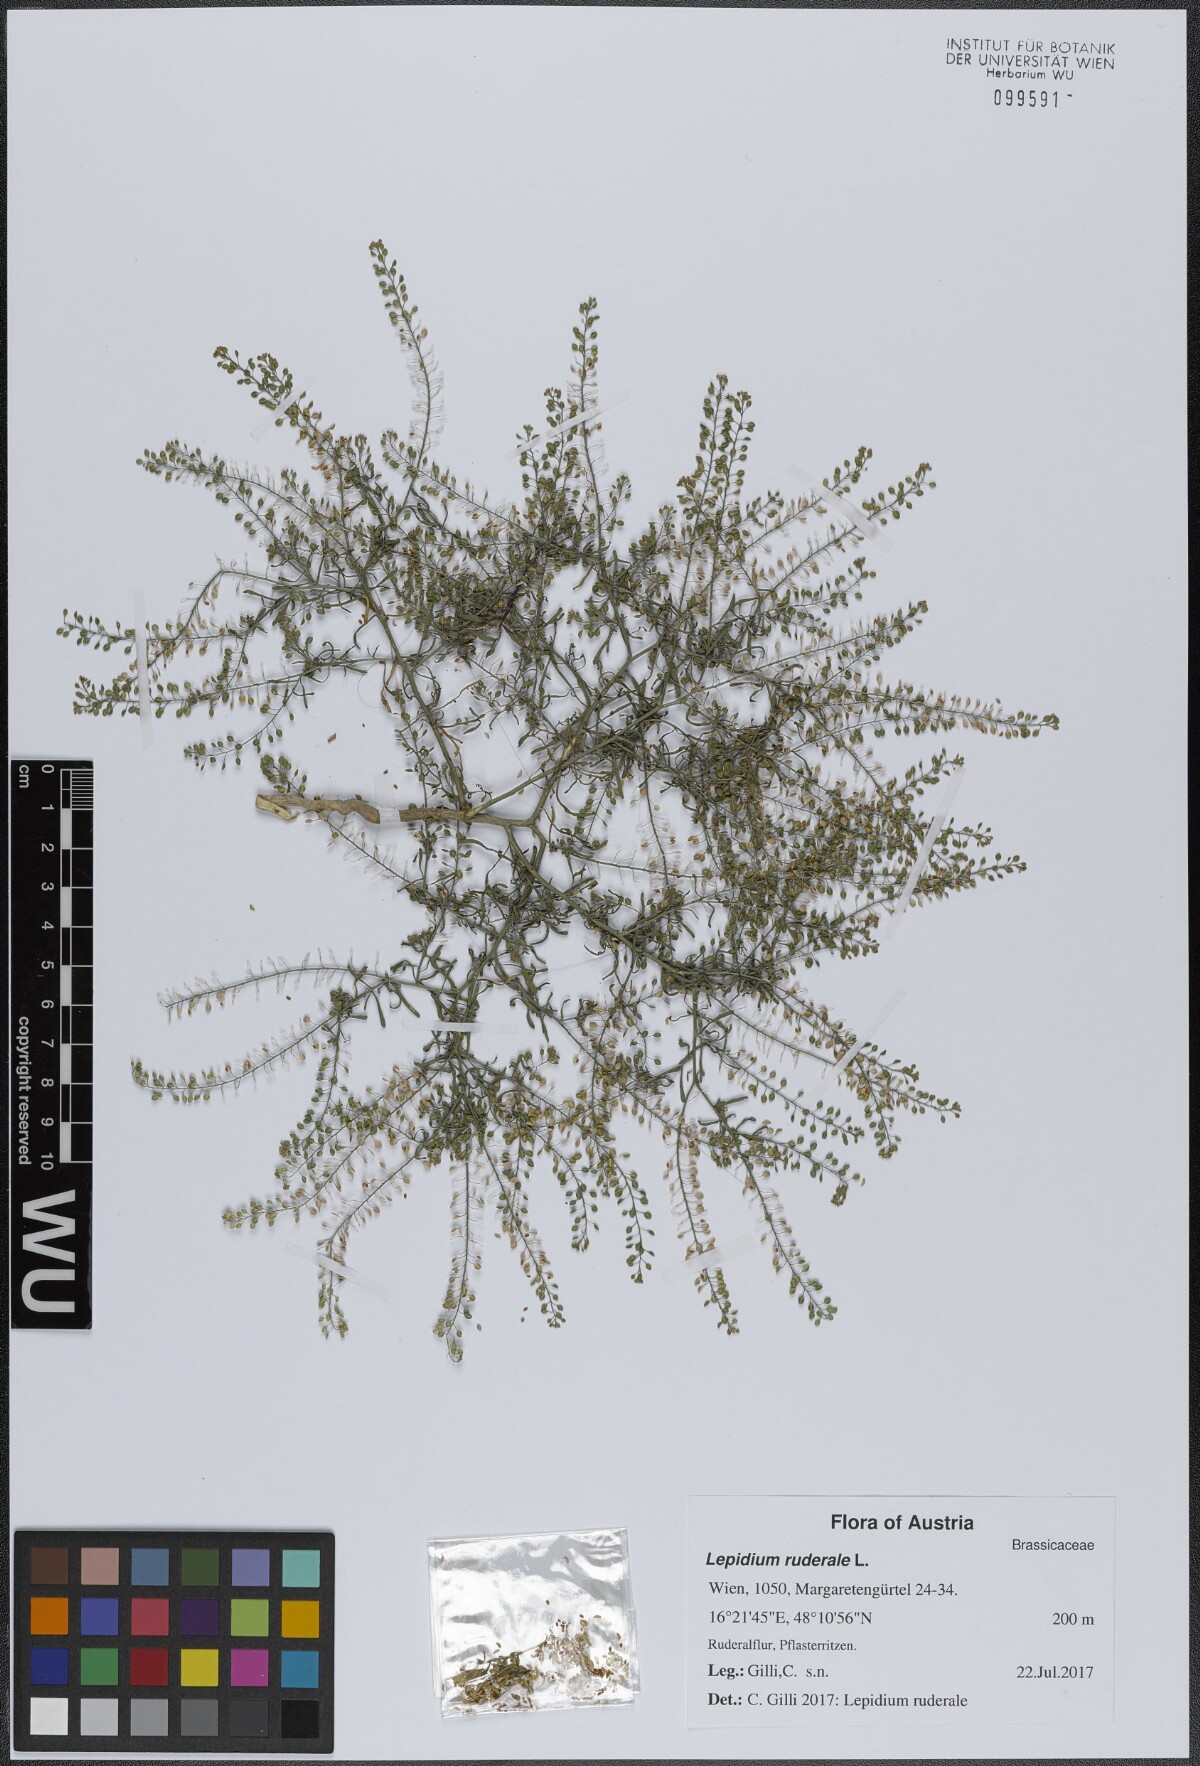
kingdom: Plantae
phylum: Tracheophyta
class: Magnoliopsida
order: Brassicales
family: Brassicaceae
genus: Lepidium
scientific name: Lepidium ruderale
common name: Narrow-leaved pepperwort
